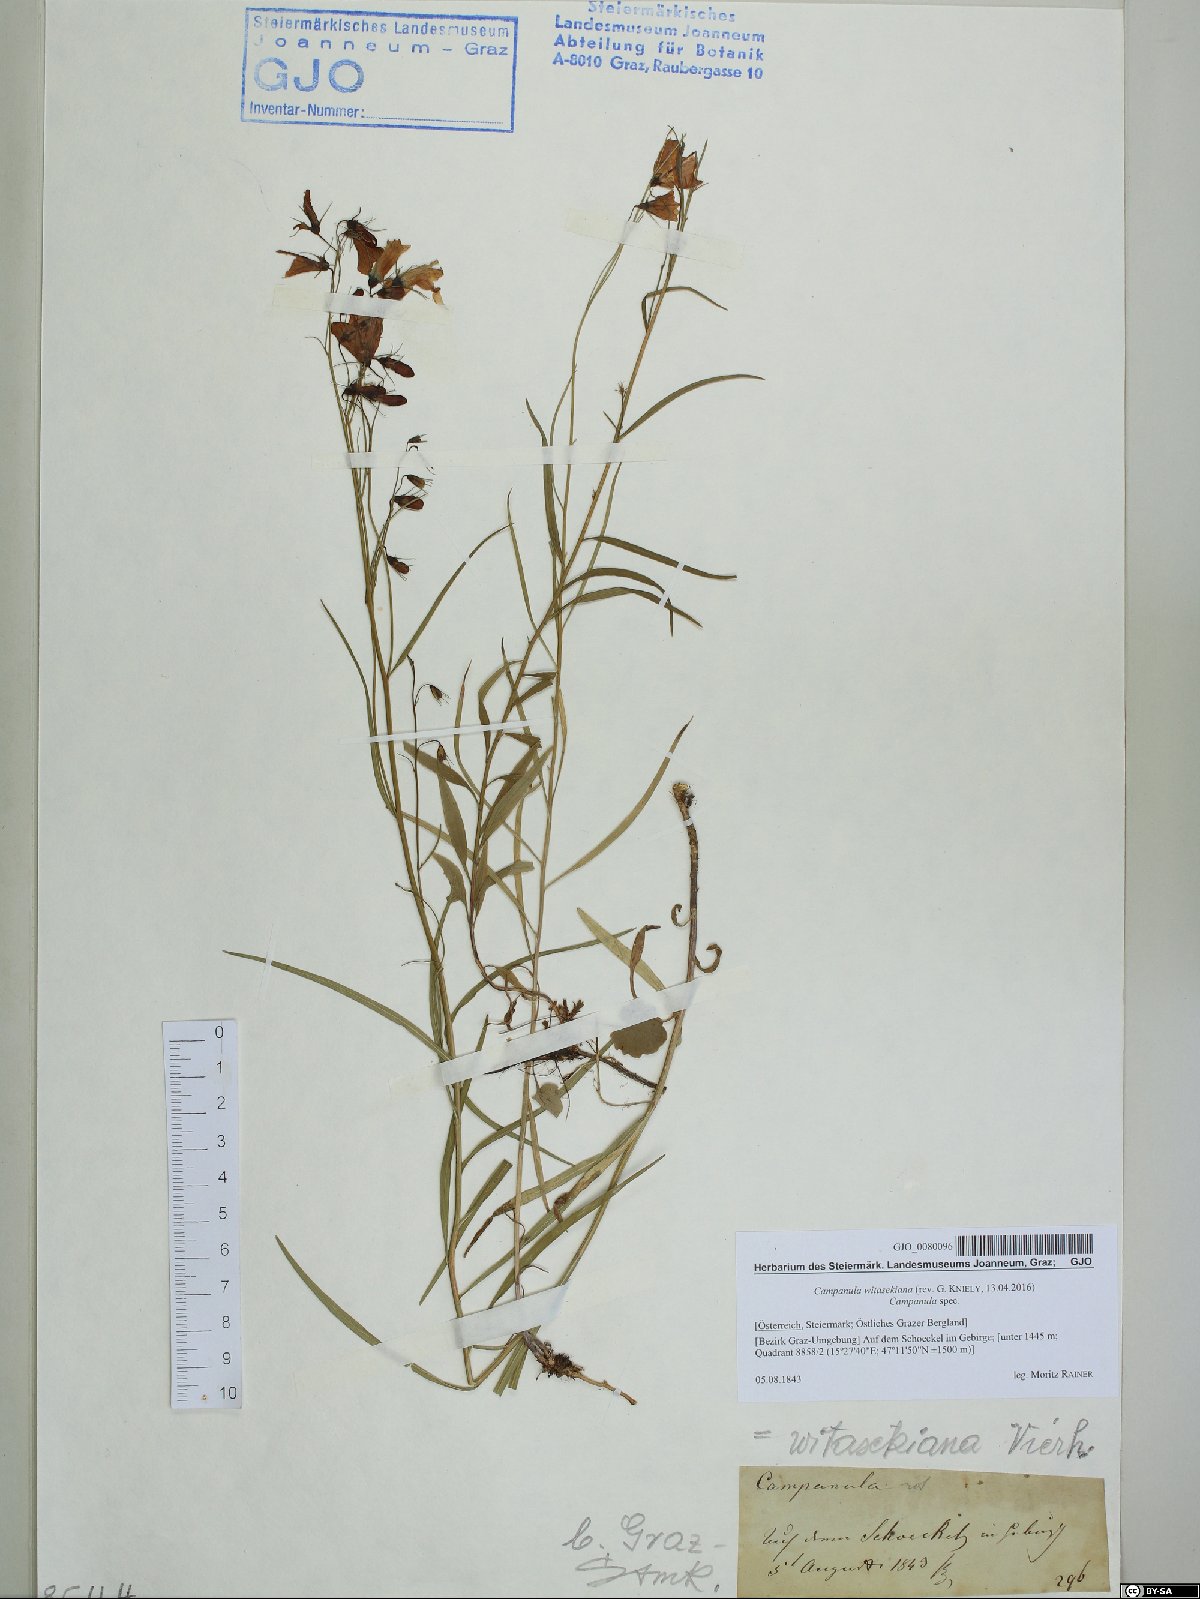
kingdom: Plantae
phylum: Tracheophyta
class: Magnoliopsida
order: Asterales
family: Campanulaceae
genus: Campanula
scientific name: Campanula witasekiana
